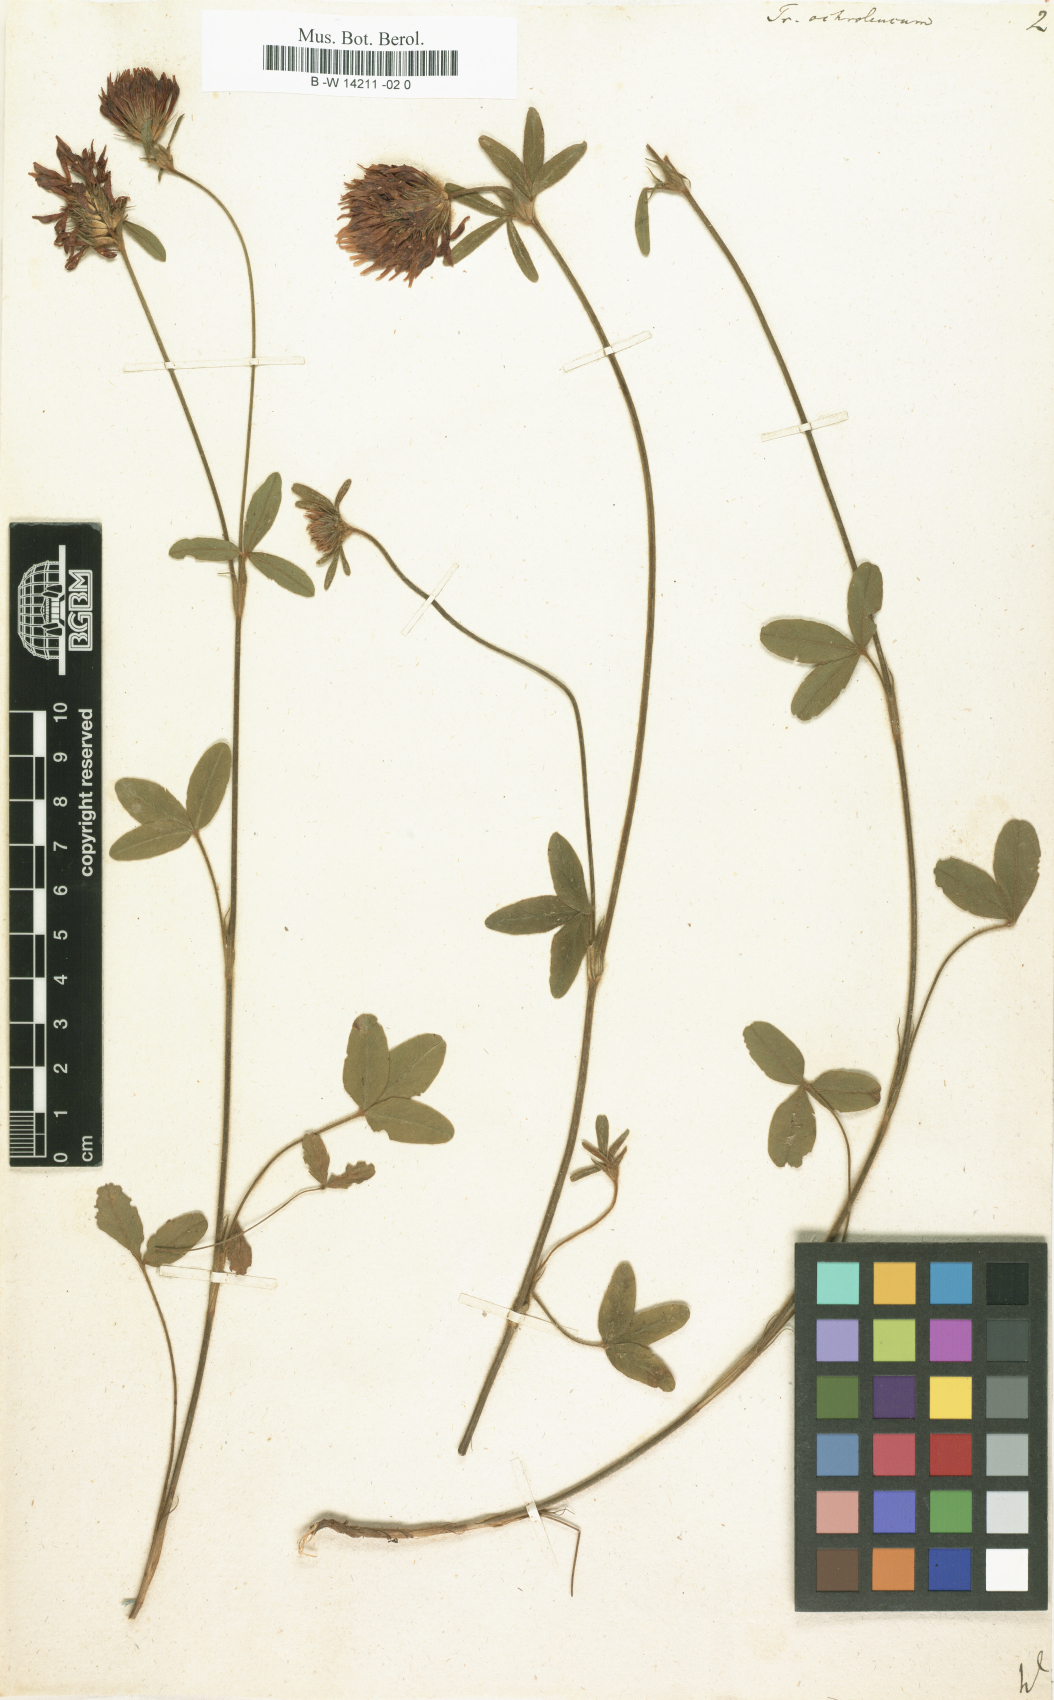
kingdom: Plantae
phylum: Tracheophyta
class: Magnoliopsida
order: Fabales
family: Fabaceae
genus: Trifolium
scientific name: Trifolium
